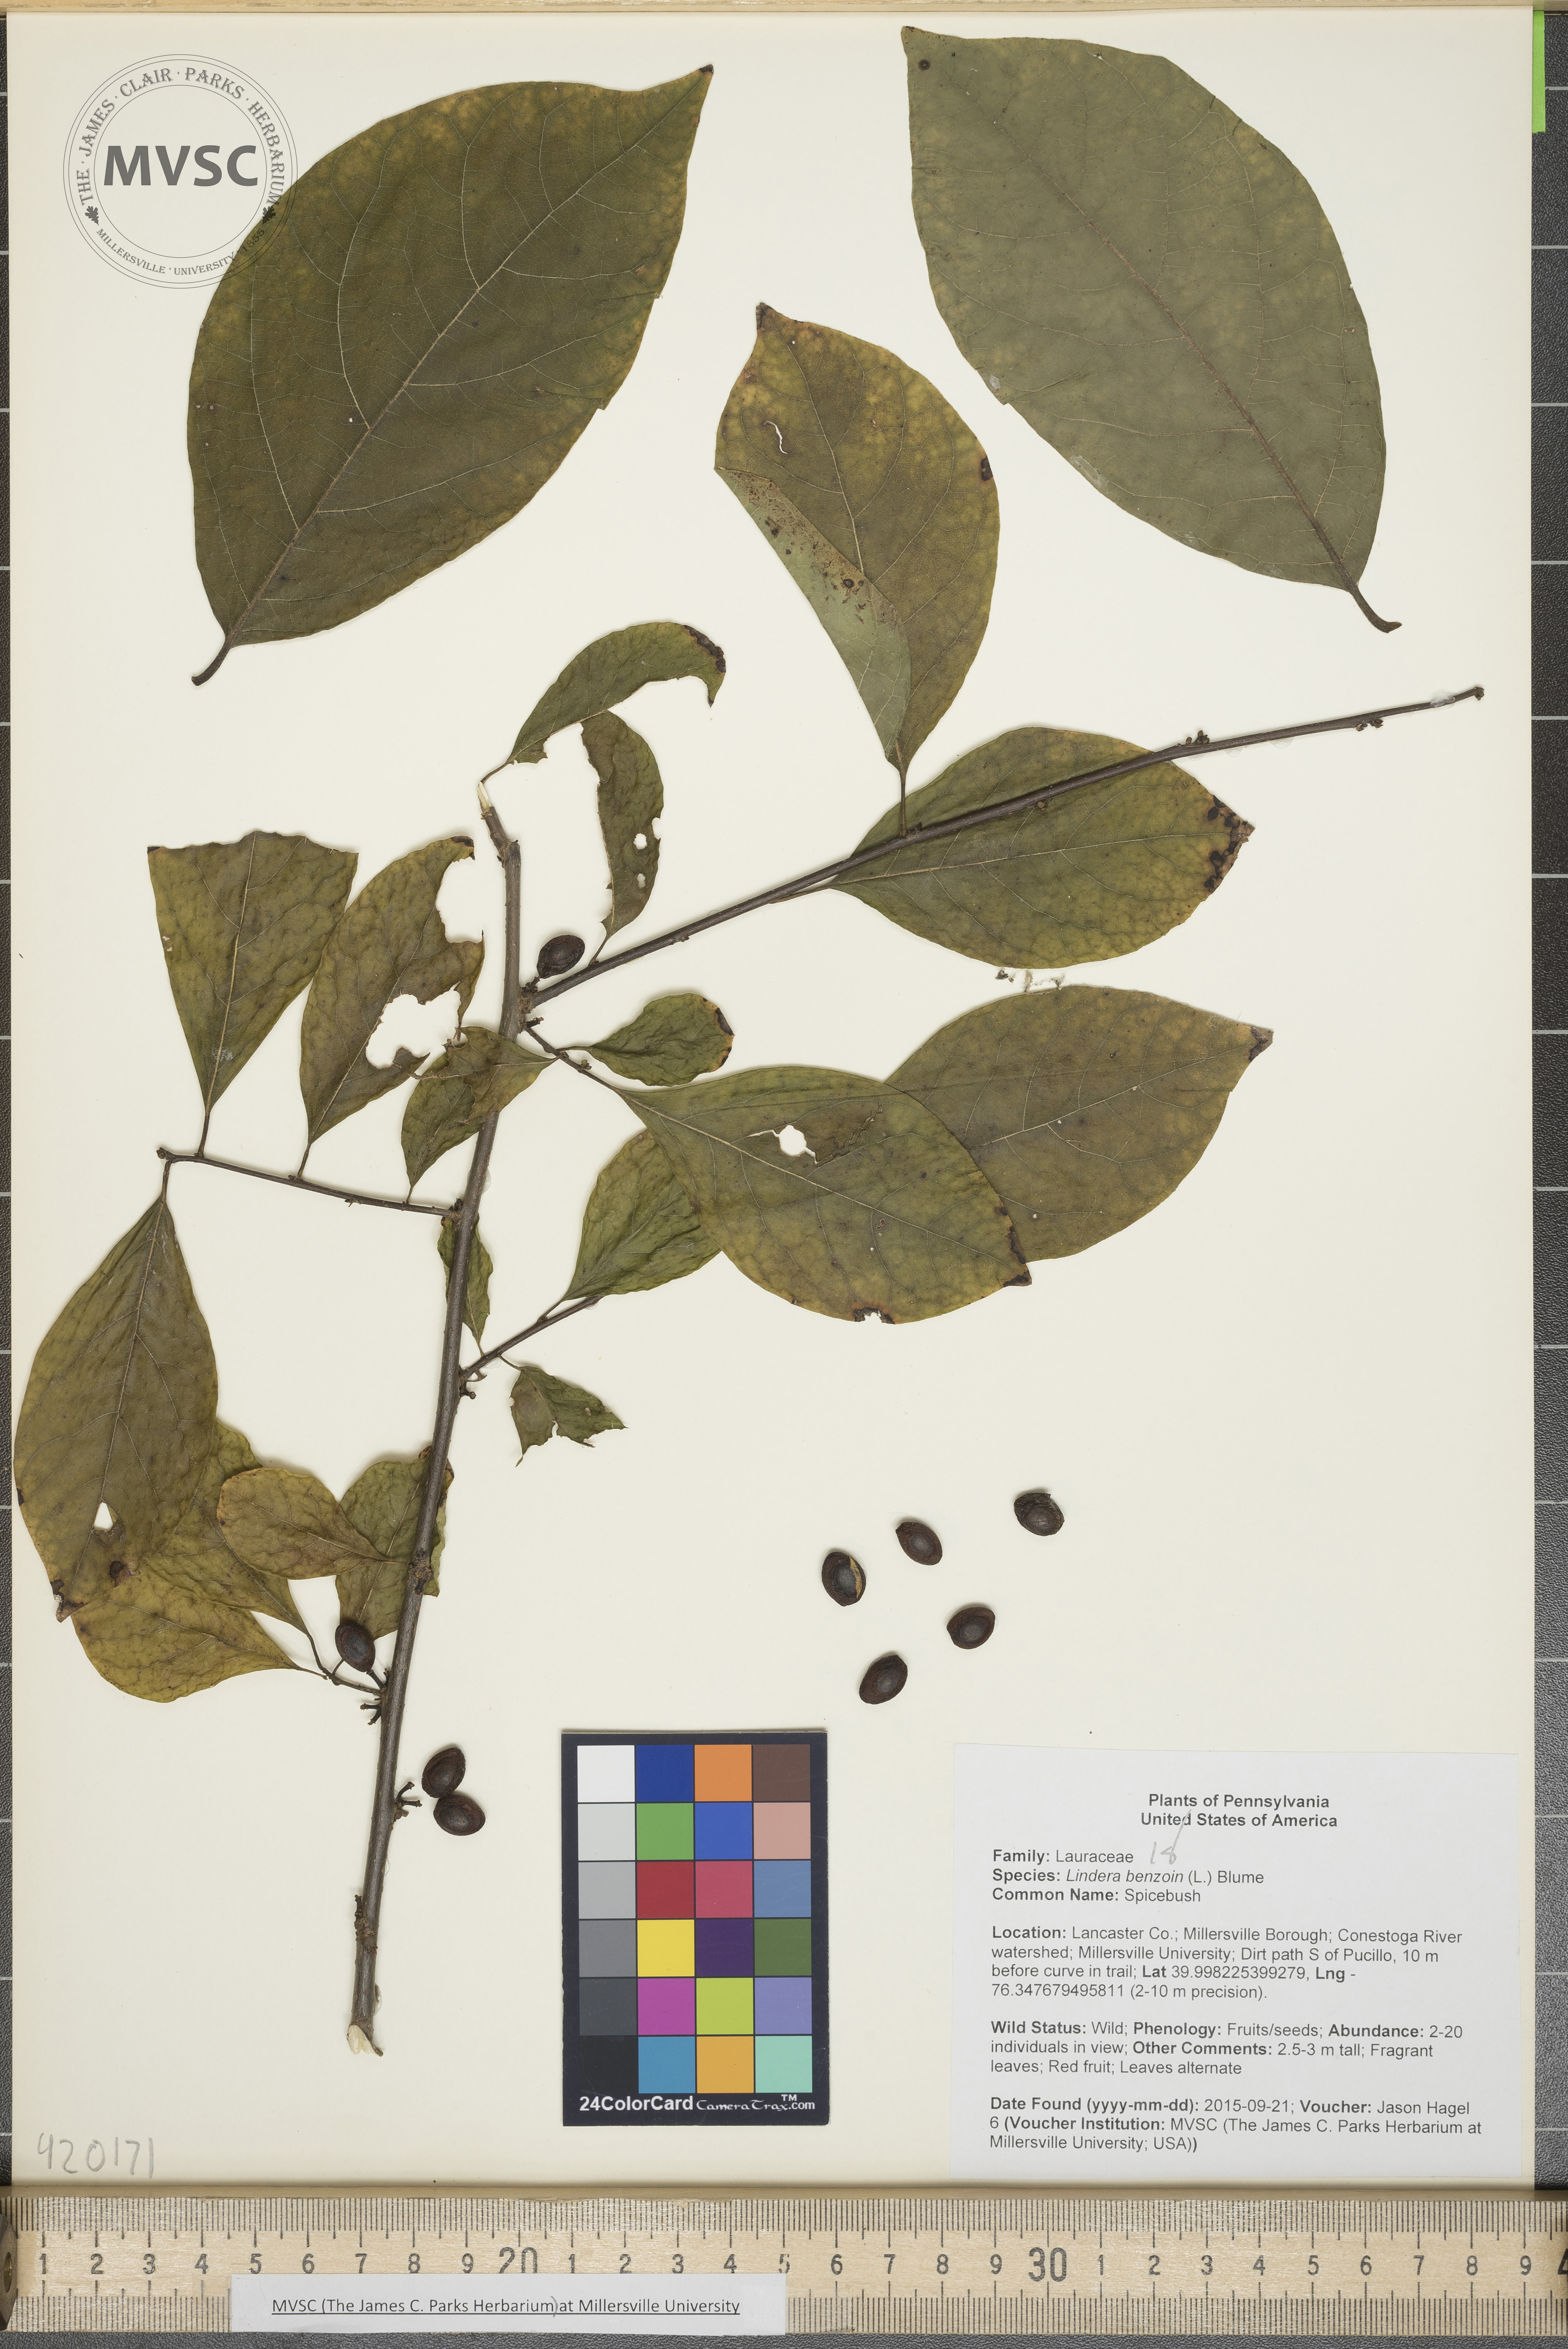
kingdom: Plantae
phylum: Tracheophyta
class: Magnoliopsida
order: Laurales
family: Lauraceae
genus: Lindera
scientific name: Lindera benzoin
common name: Spicebush
